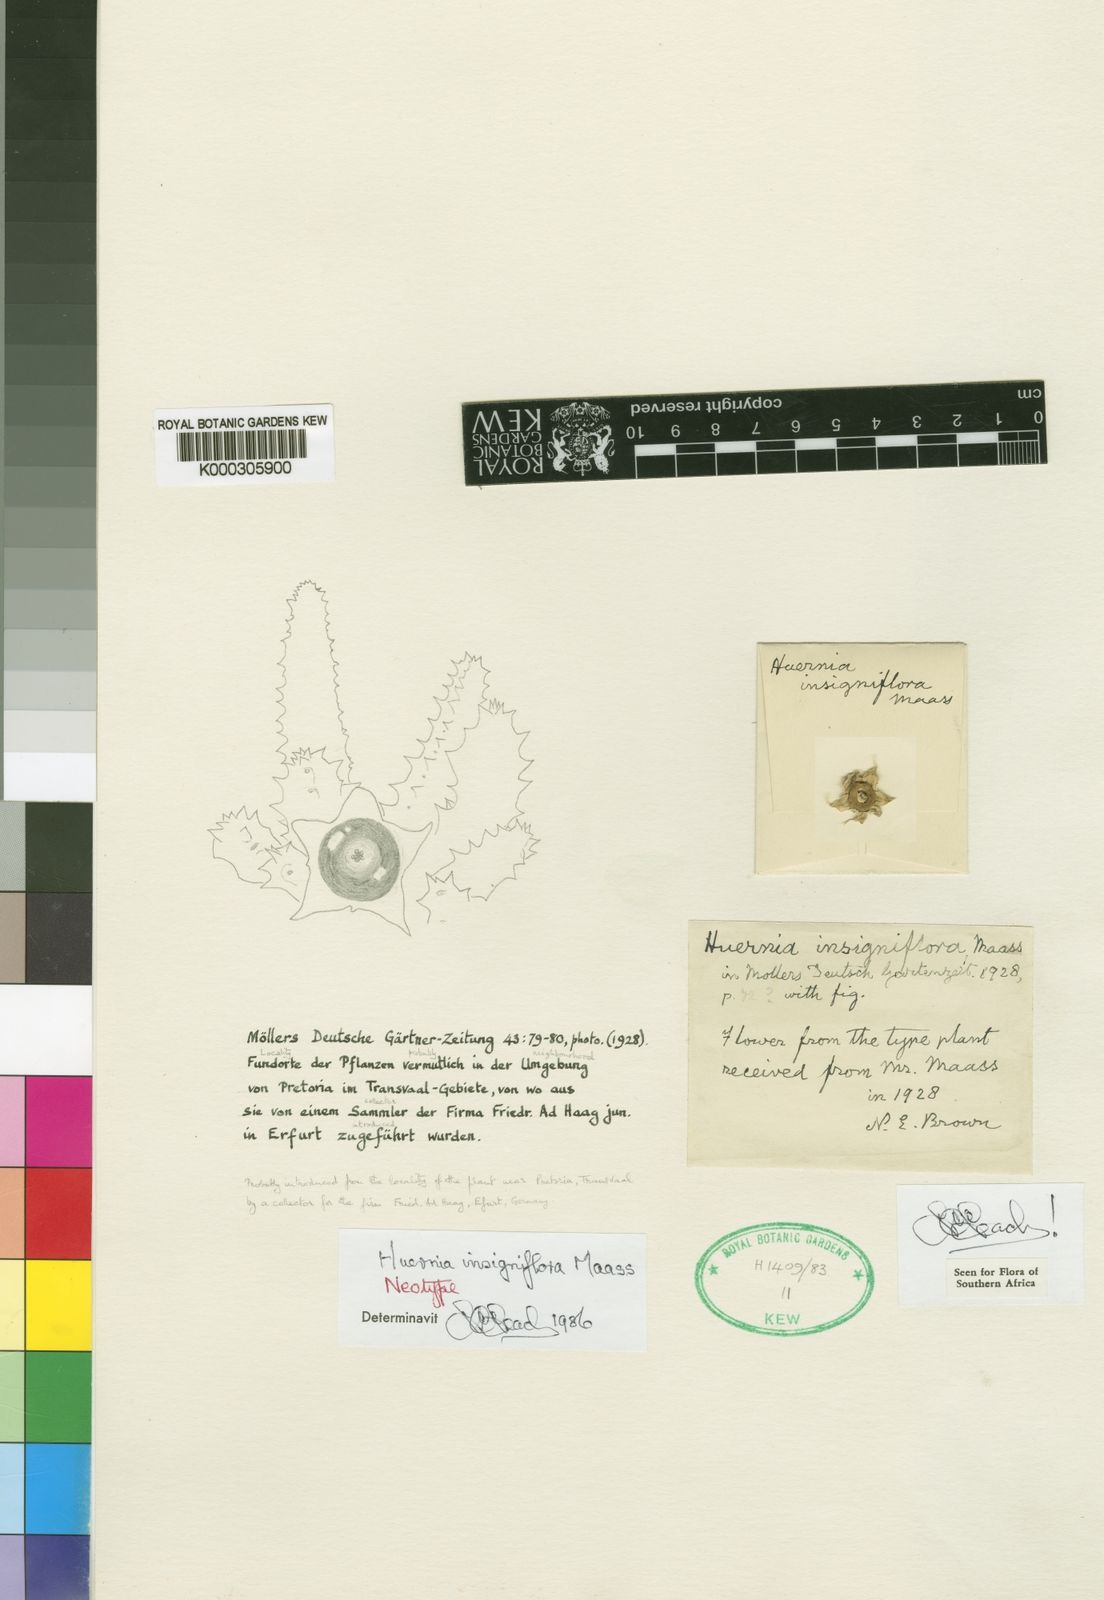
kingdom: Plantae
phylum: Tracheophyta
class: Magnoliopsida
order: Gentianales
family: Apocynaceae
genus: Ceropegia
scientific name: Ceropegia zebrina
